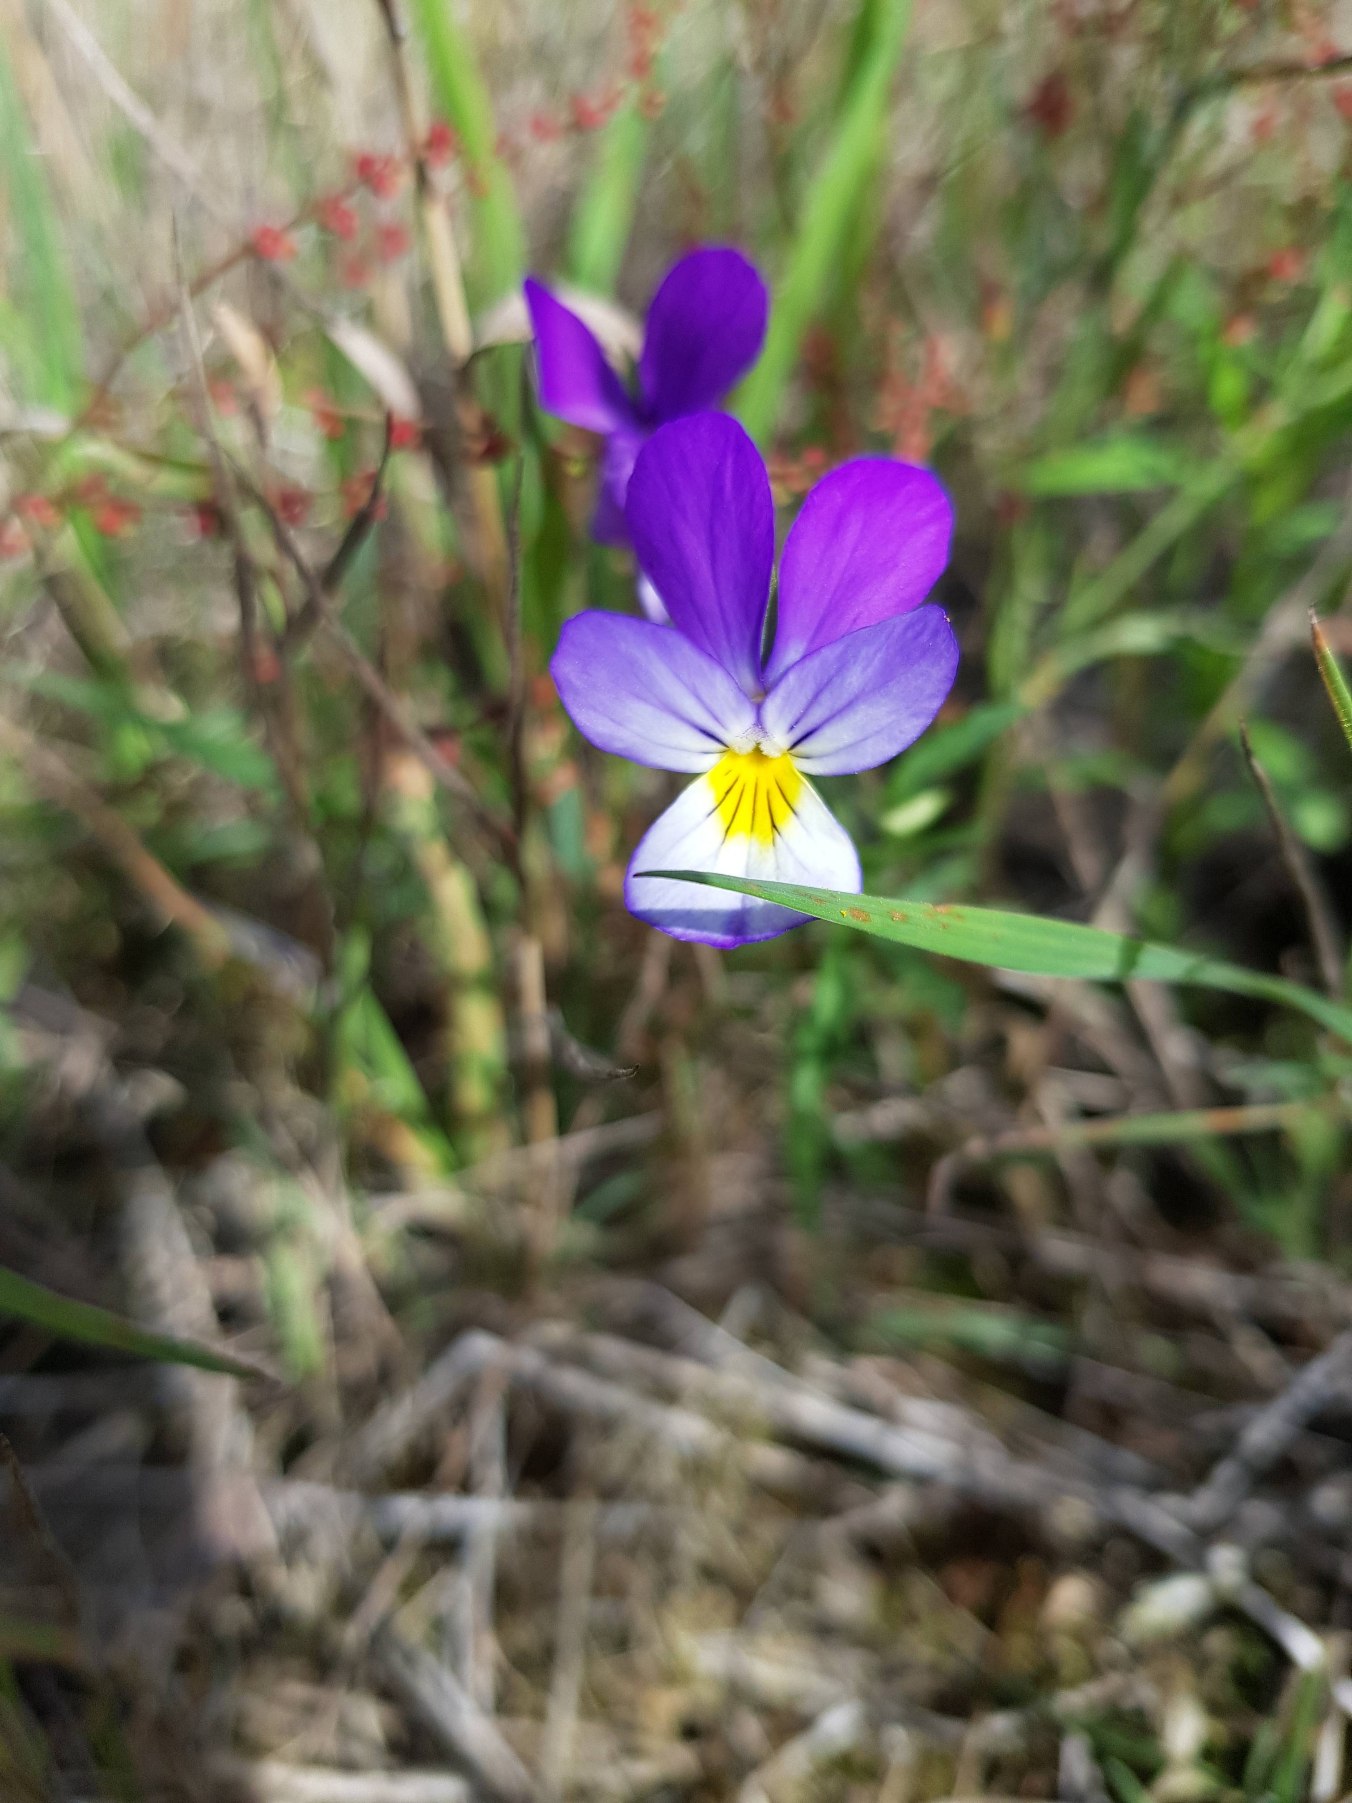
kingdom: Plantae
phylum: Tracheophyta
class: Magnoliopsida
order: Malpighiales
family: Violaceae
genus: Viola
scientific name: Viola tricolor
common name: Stedmoderblomst
